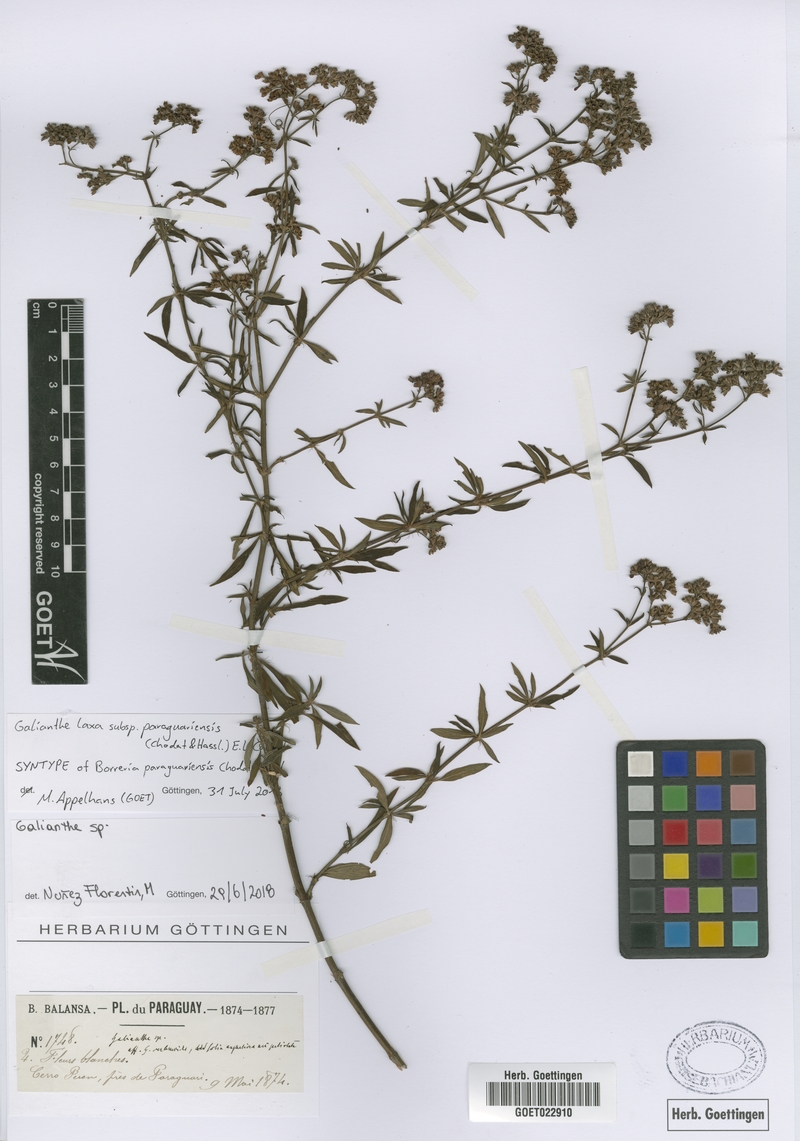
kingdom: Plantae
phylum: Tracheophyta
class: Magnoliopsida
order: Gentianales
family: Rubiaceae
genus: Galianthe
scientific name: Galianthe laxa
